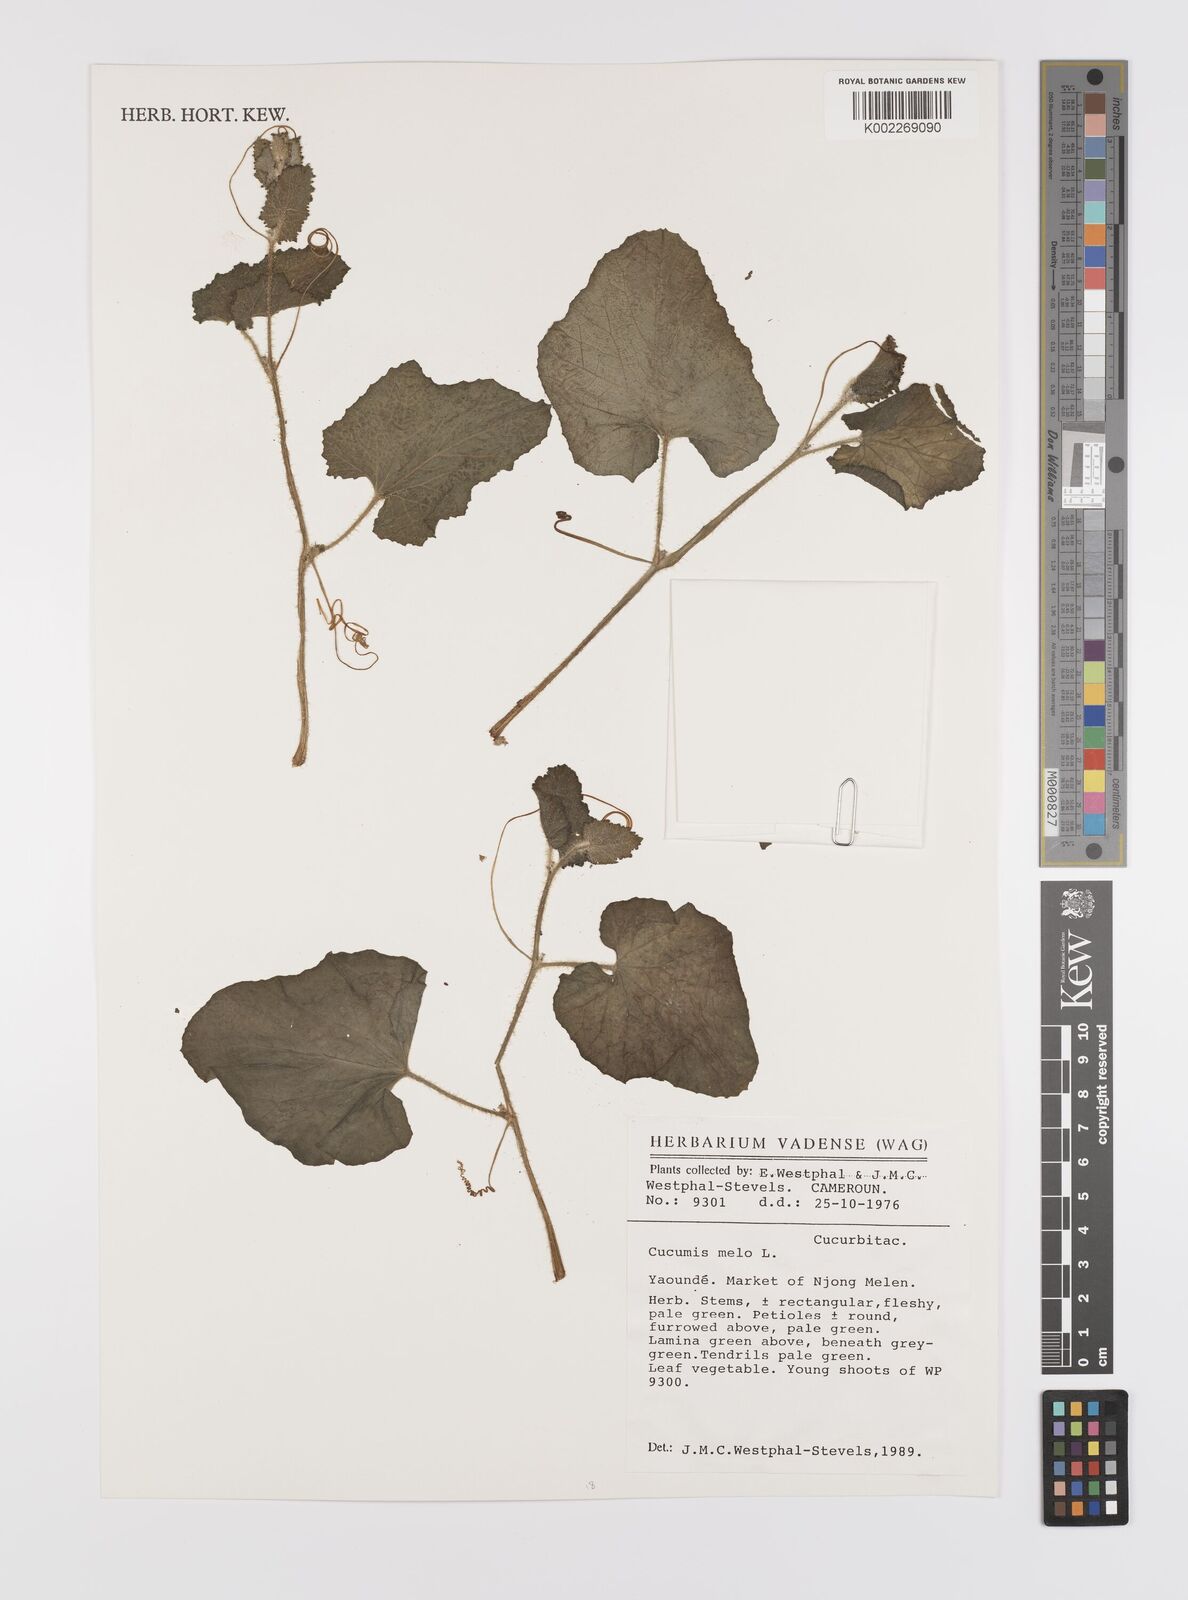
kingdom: Plantae
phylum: Tracheophyta
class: Magnoliopsida
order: Cucurbitales
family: Cucurbitaceae
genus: Cucumis
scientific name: Cucumis melo
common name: Melon
